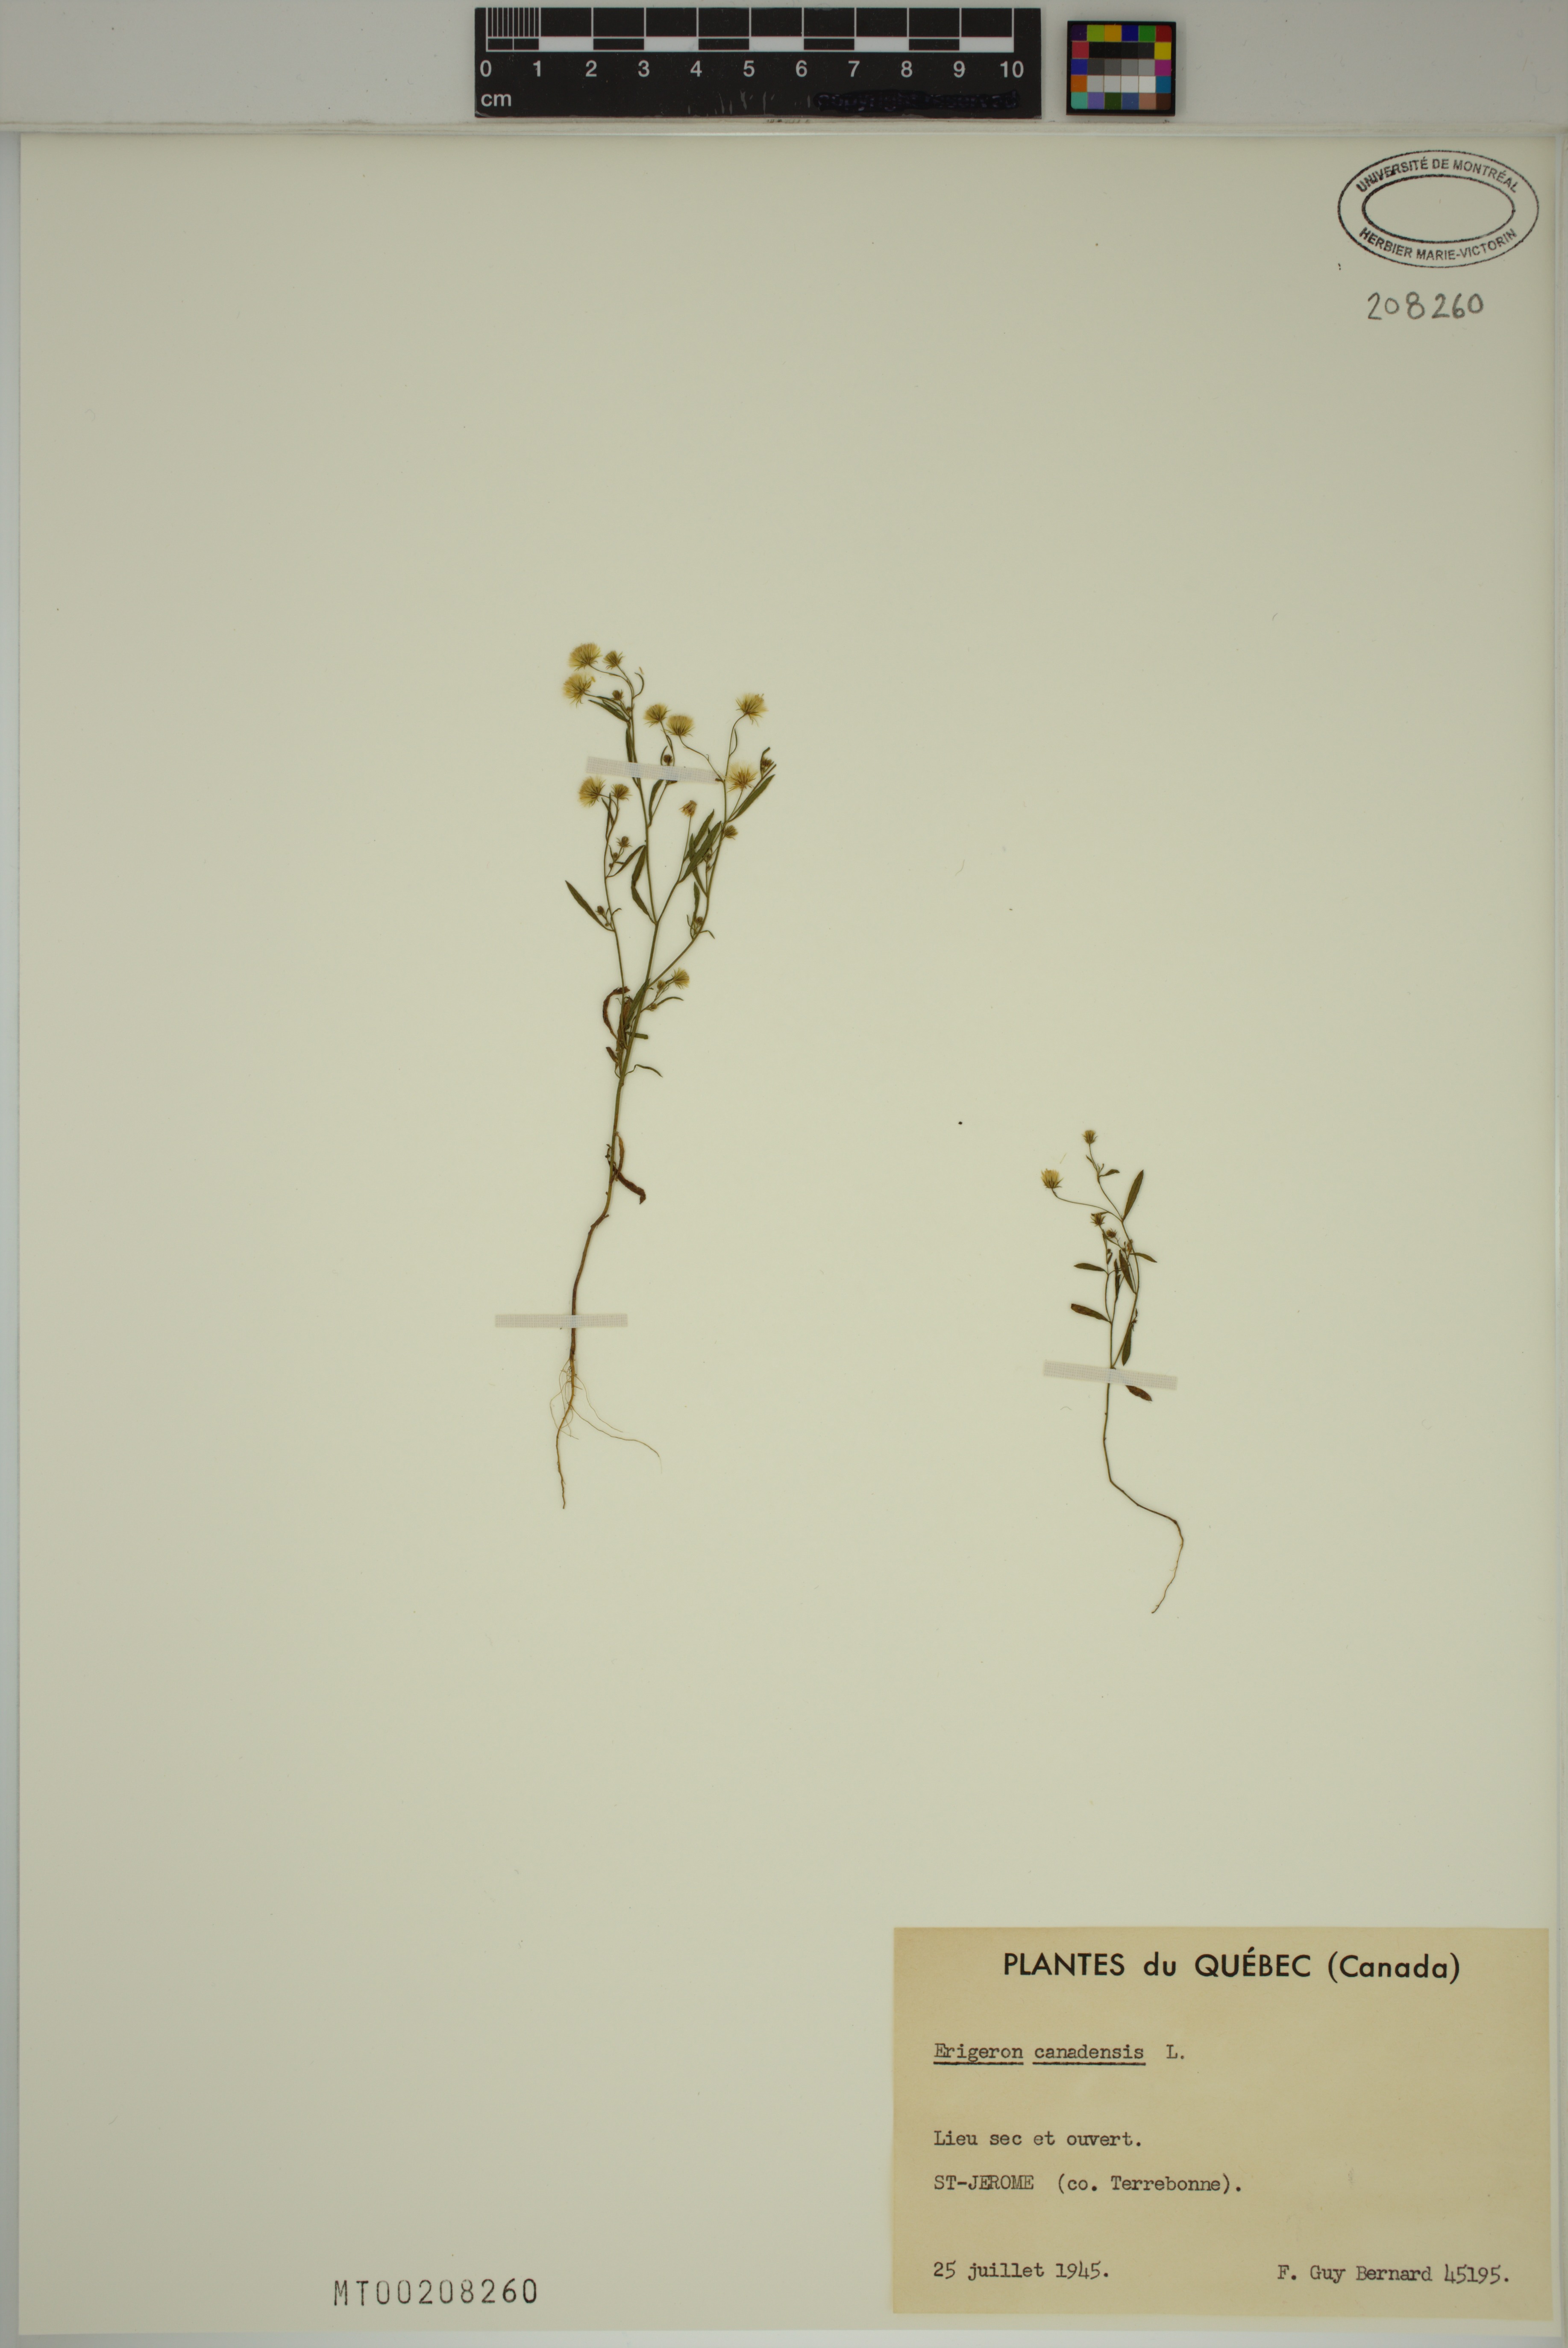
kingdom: Plantae
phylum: Tracheophyta
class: Magnoliopsida
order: Asterales
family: Asteraceae
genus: Erigeron
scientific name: Erigeron canadensis
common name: Canadian fleabane
